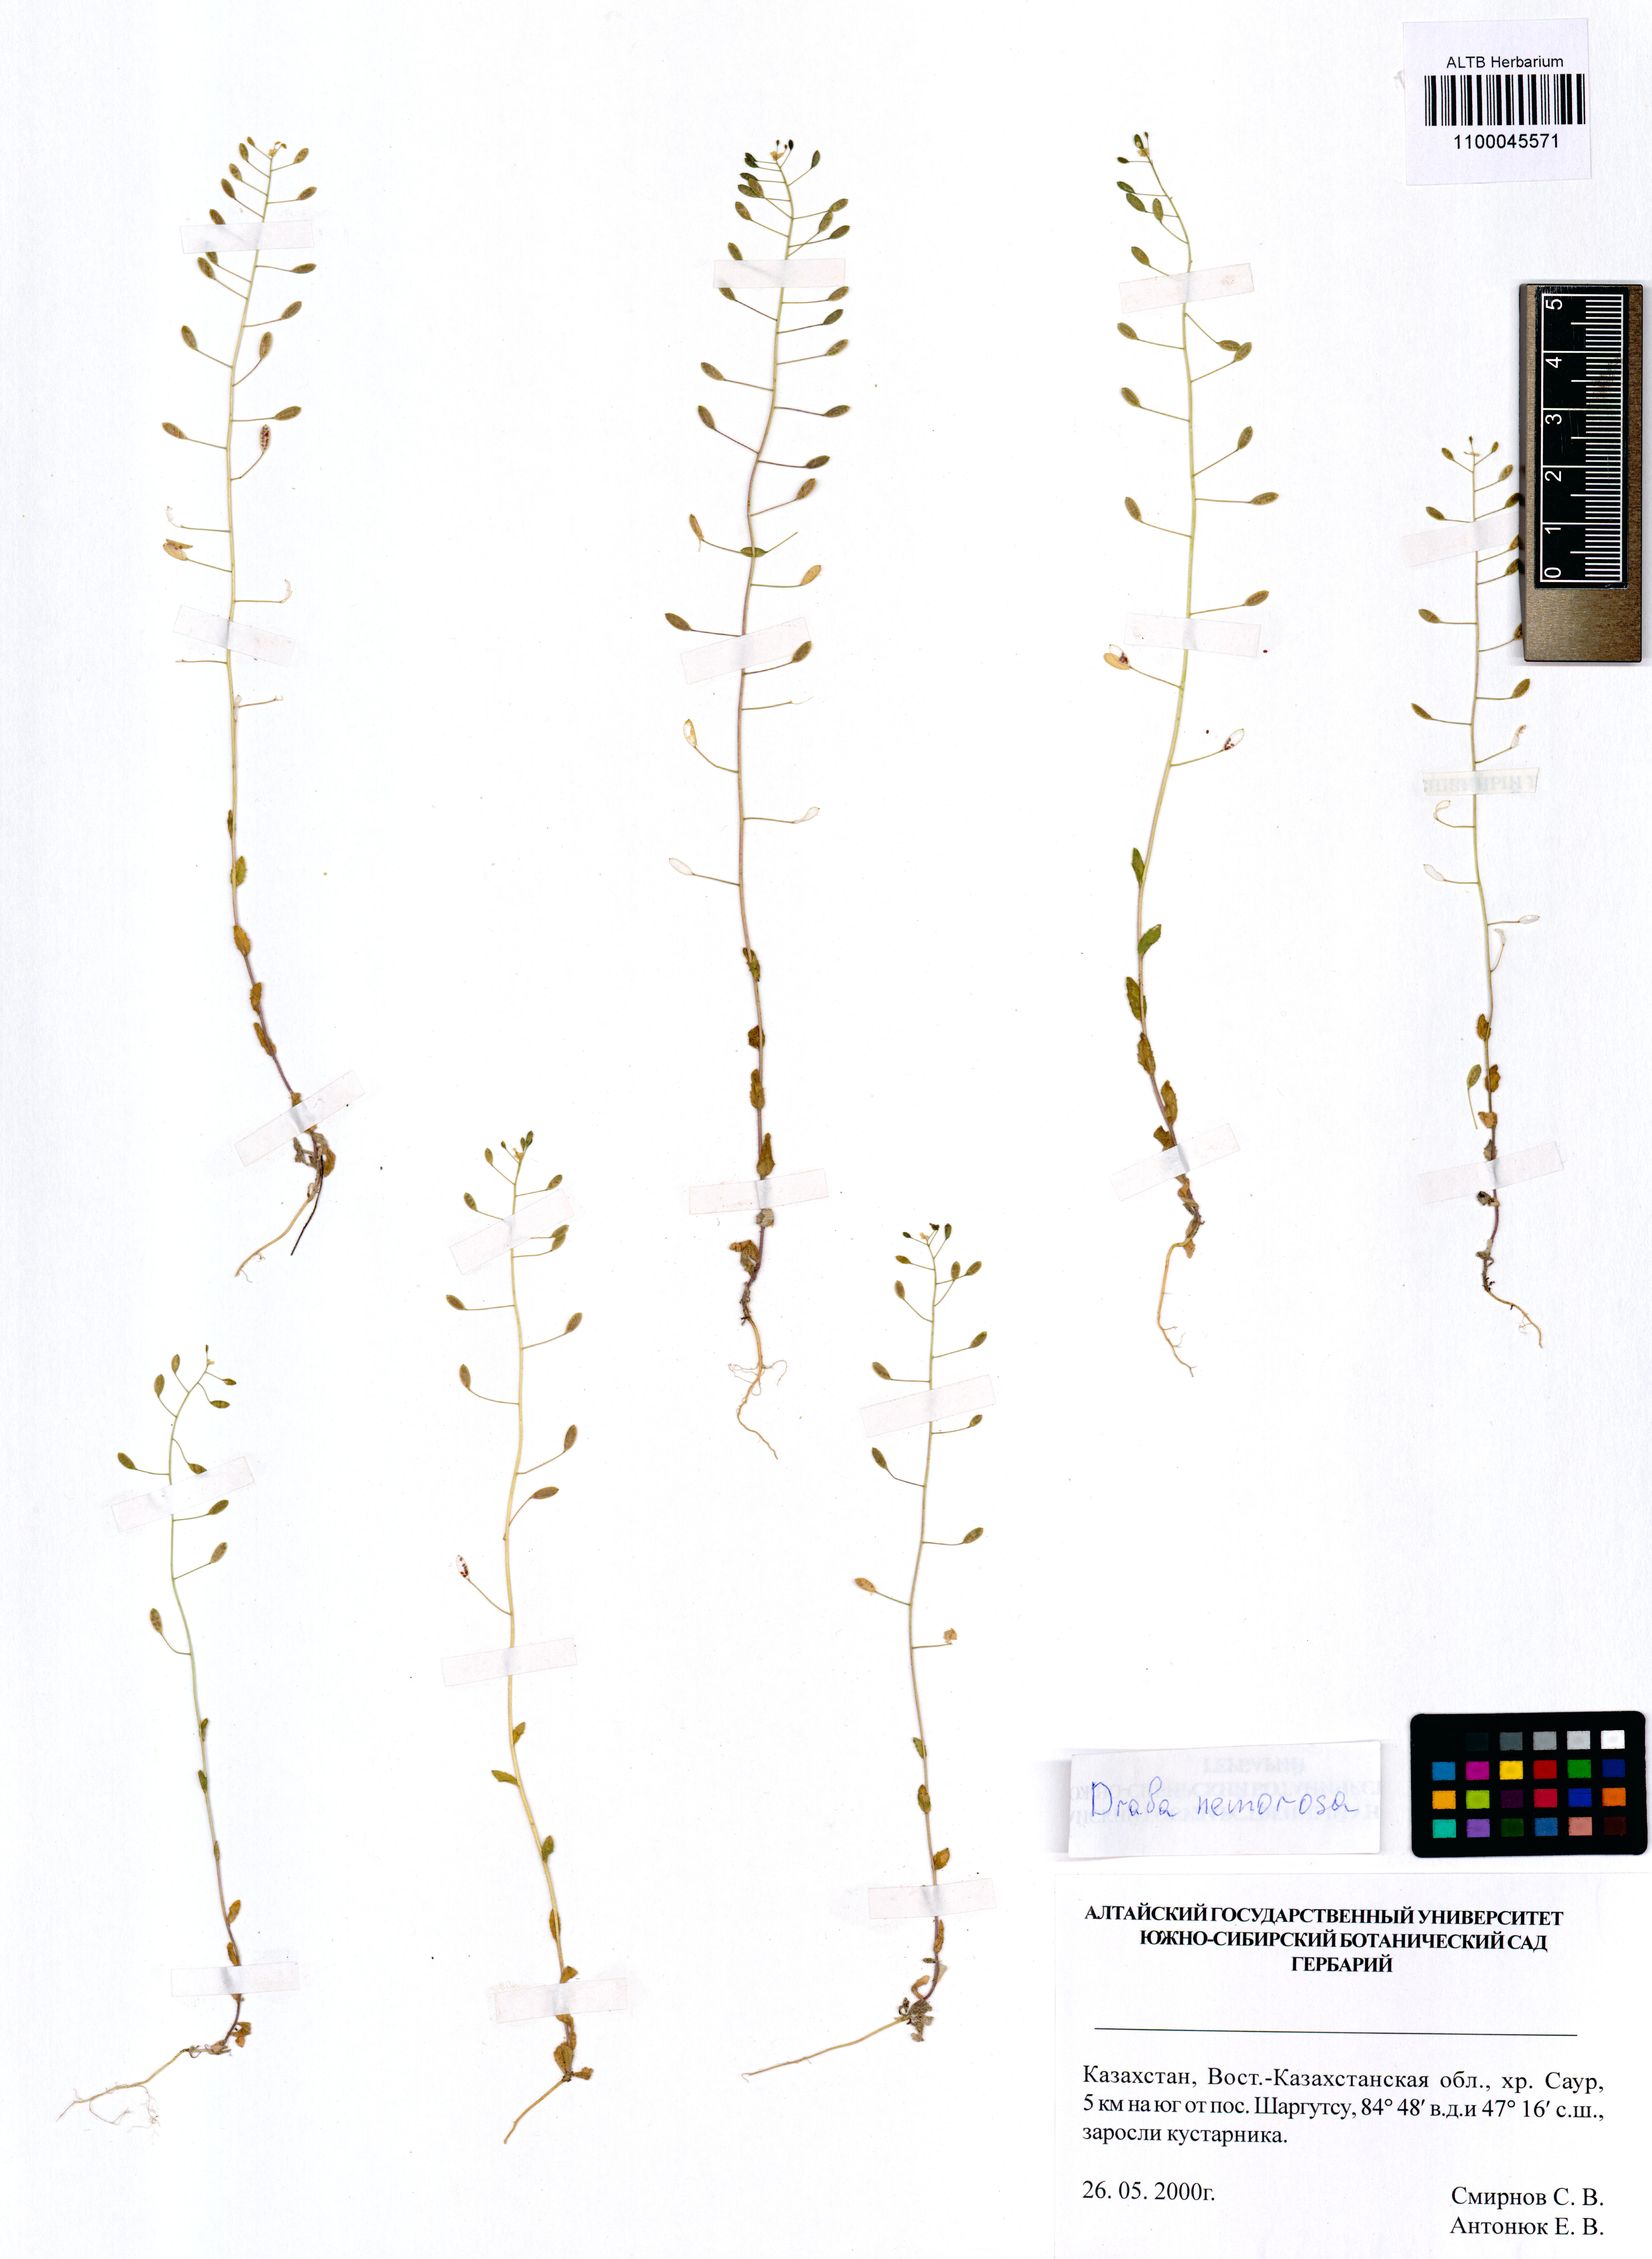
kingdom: Plantae
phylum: Tracheophyta
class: Magnoliopsida
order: Brassicales
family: Brassicaceae
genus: Draba
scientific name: Draba nemorosa
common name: Wood whitlow-grass
